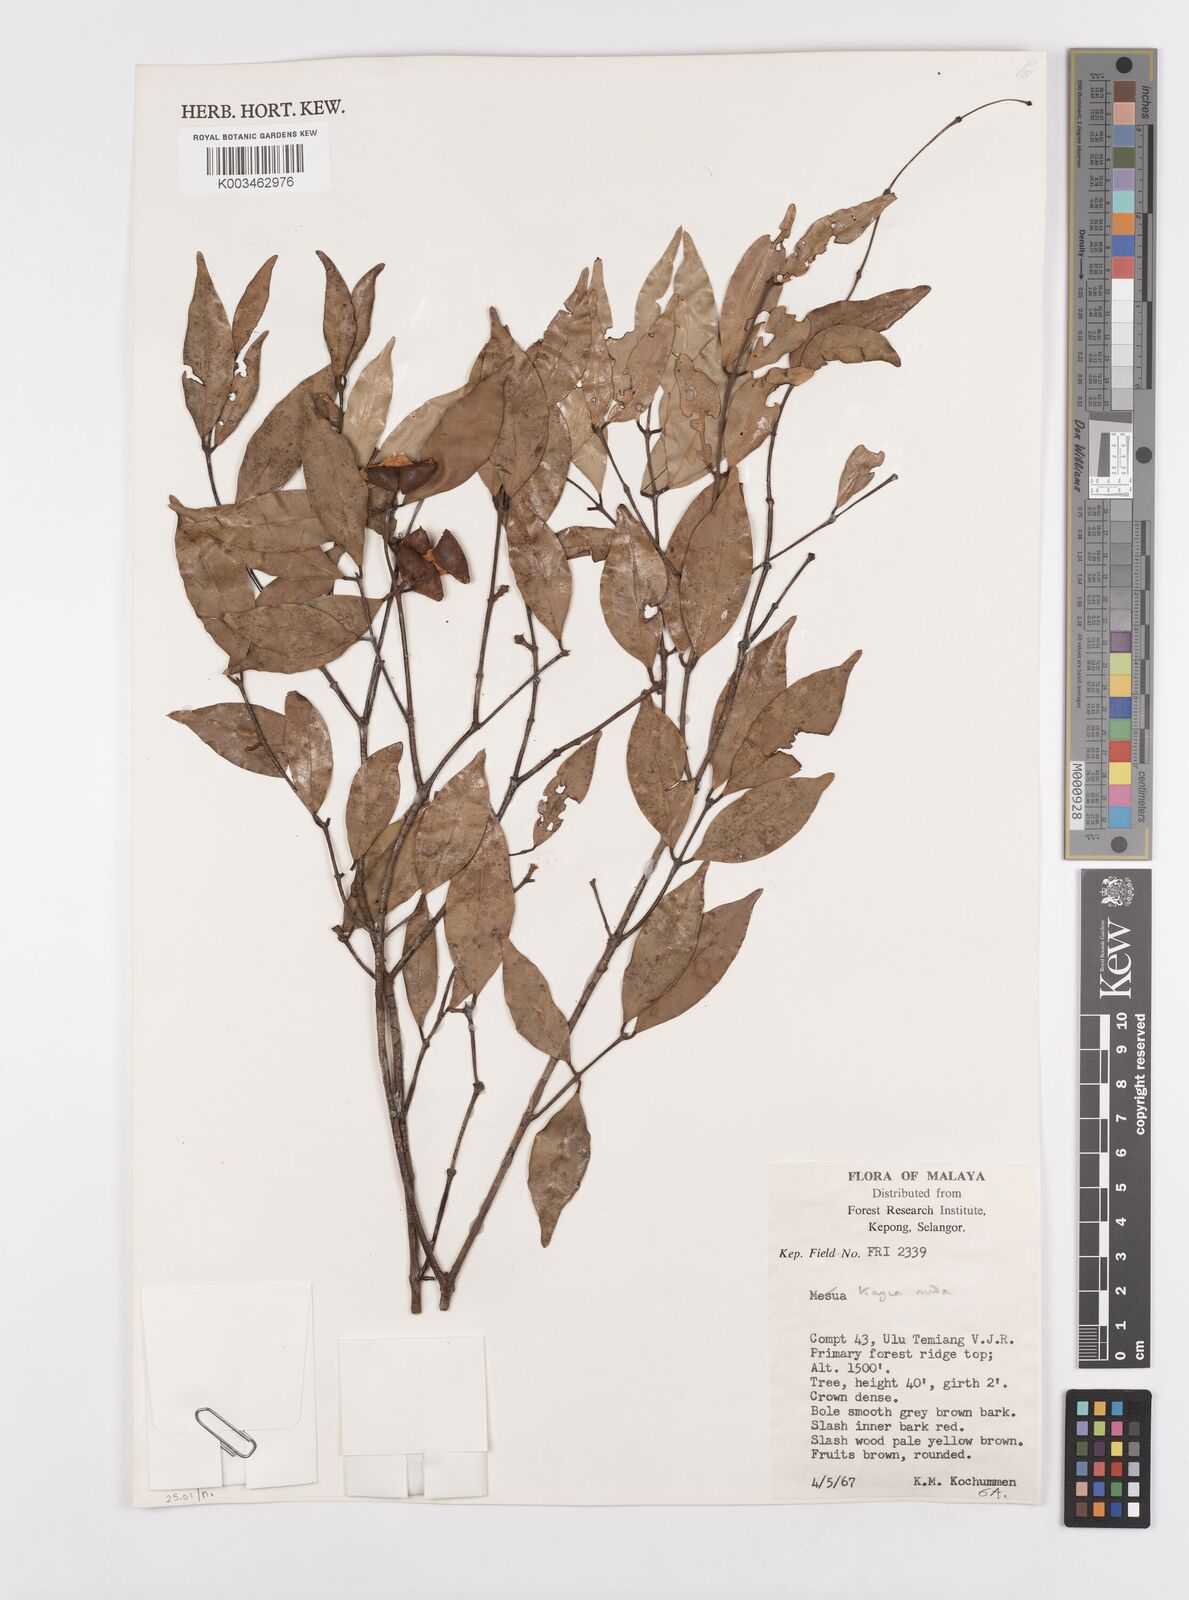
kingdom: Plantae
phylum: Tracheophyta
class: Magnoliopsida
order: Malpighiales
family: Calophyllaceae
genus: Kayea
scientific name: Kayea
